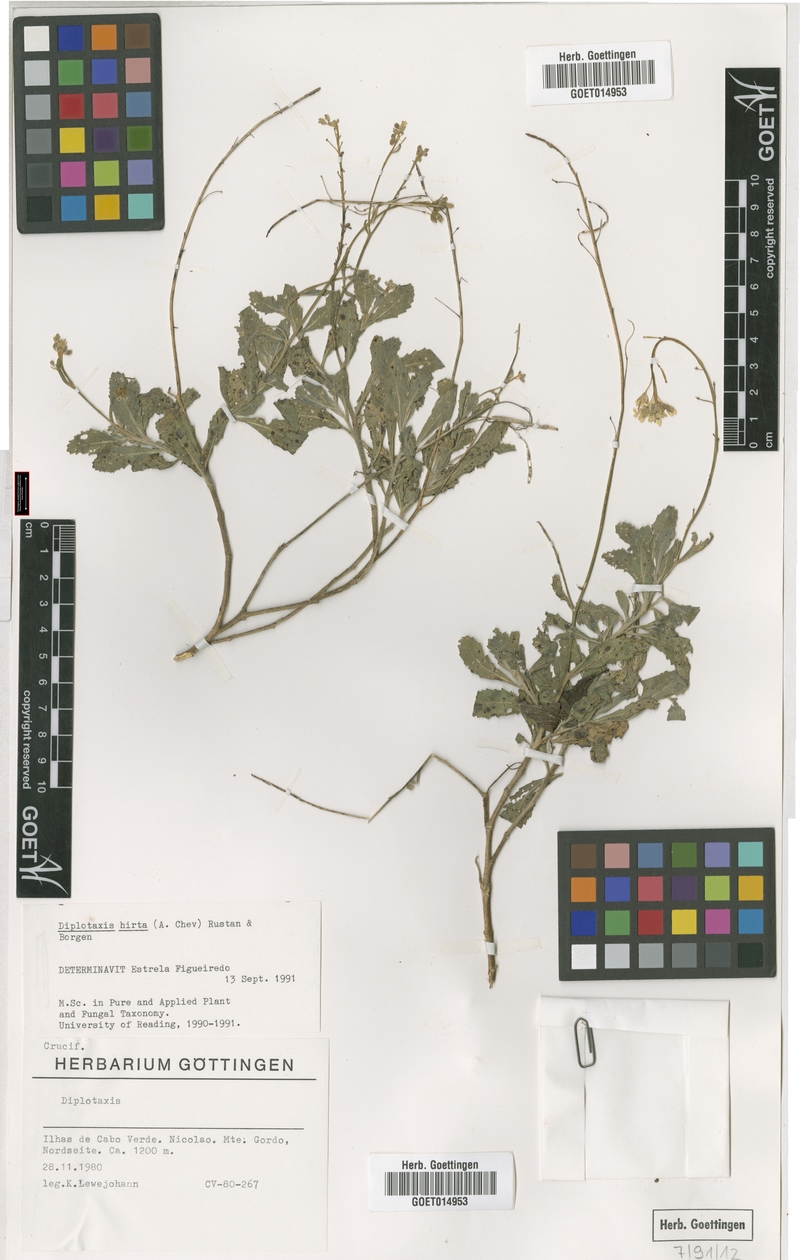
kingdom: Plantae
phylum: Tracheophyta
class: Magnoliopsida
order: Brassicales
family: Brassicaceae
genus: Diplotaxis
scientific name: Diplotaxis hirta
